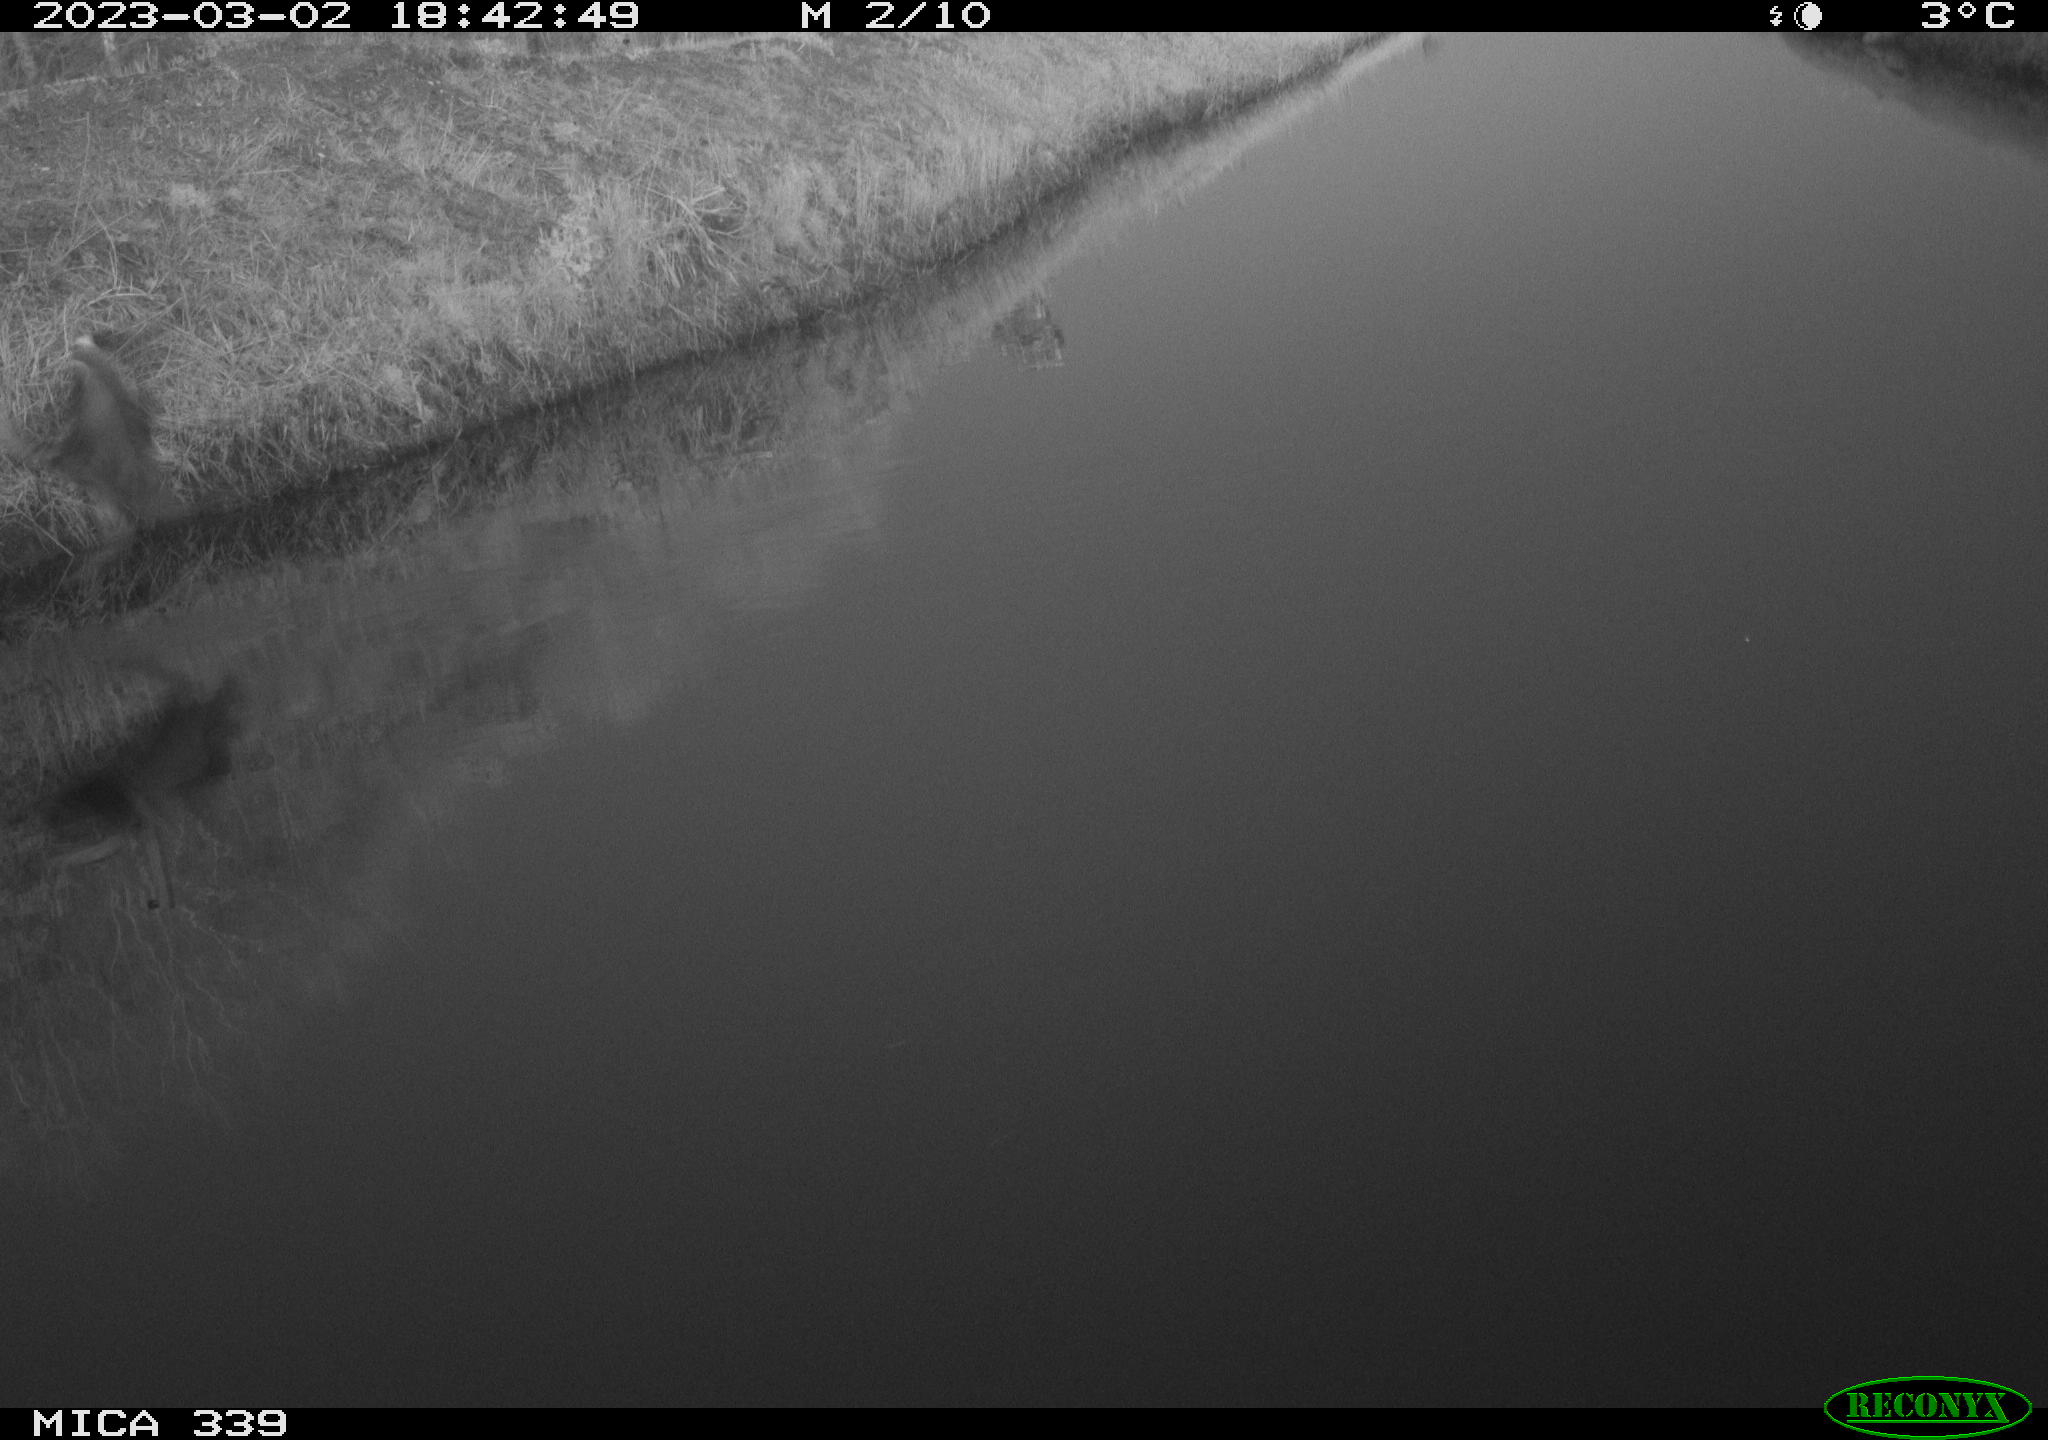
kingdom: Animalia
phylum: Chordata
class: Aves
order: Pelecaniformes
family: Ardeidae
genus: Ardea
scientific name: Ardea cinerea
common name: Grey heron
